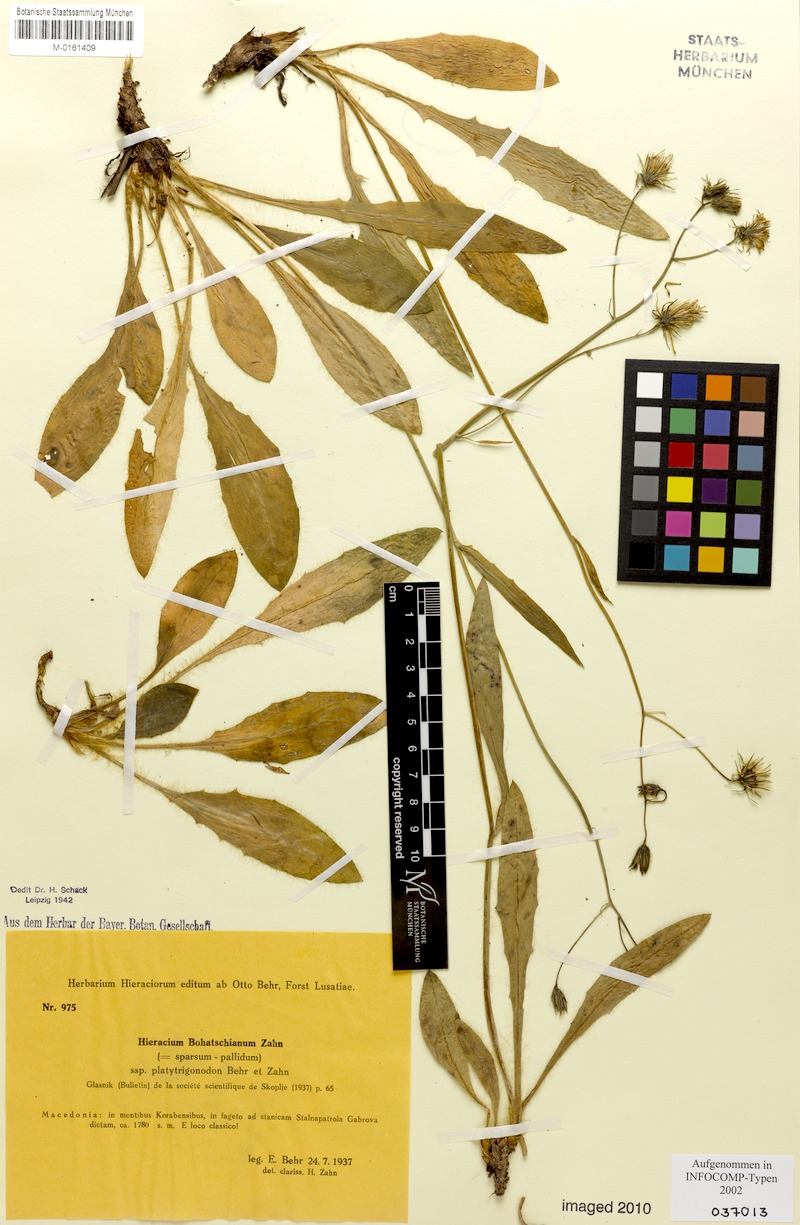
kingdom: Plantae
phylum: Tracheophyta
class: Magnoliopsida
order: Asterales
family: Asteraceae
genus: Hieracium
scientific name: Hieracium bohatschianum
